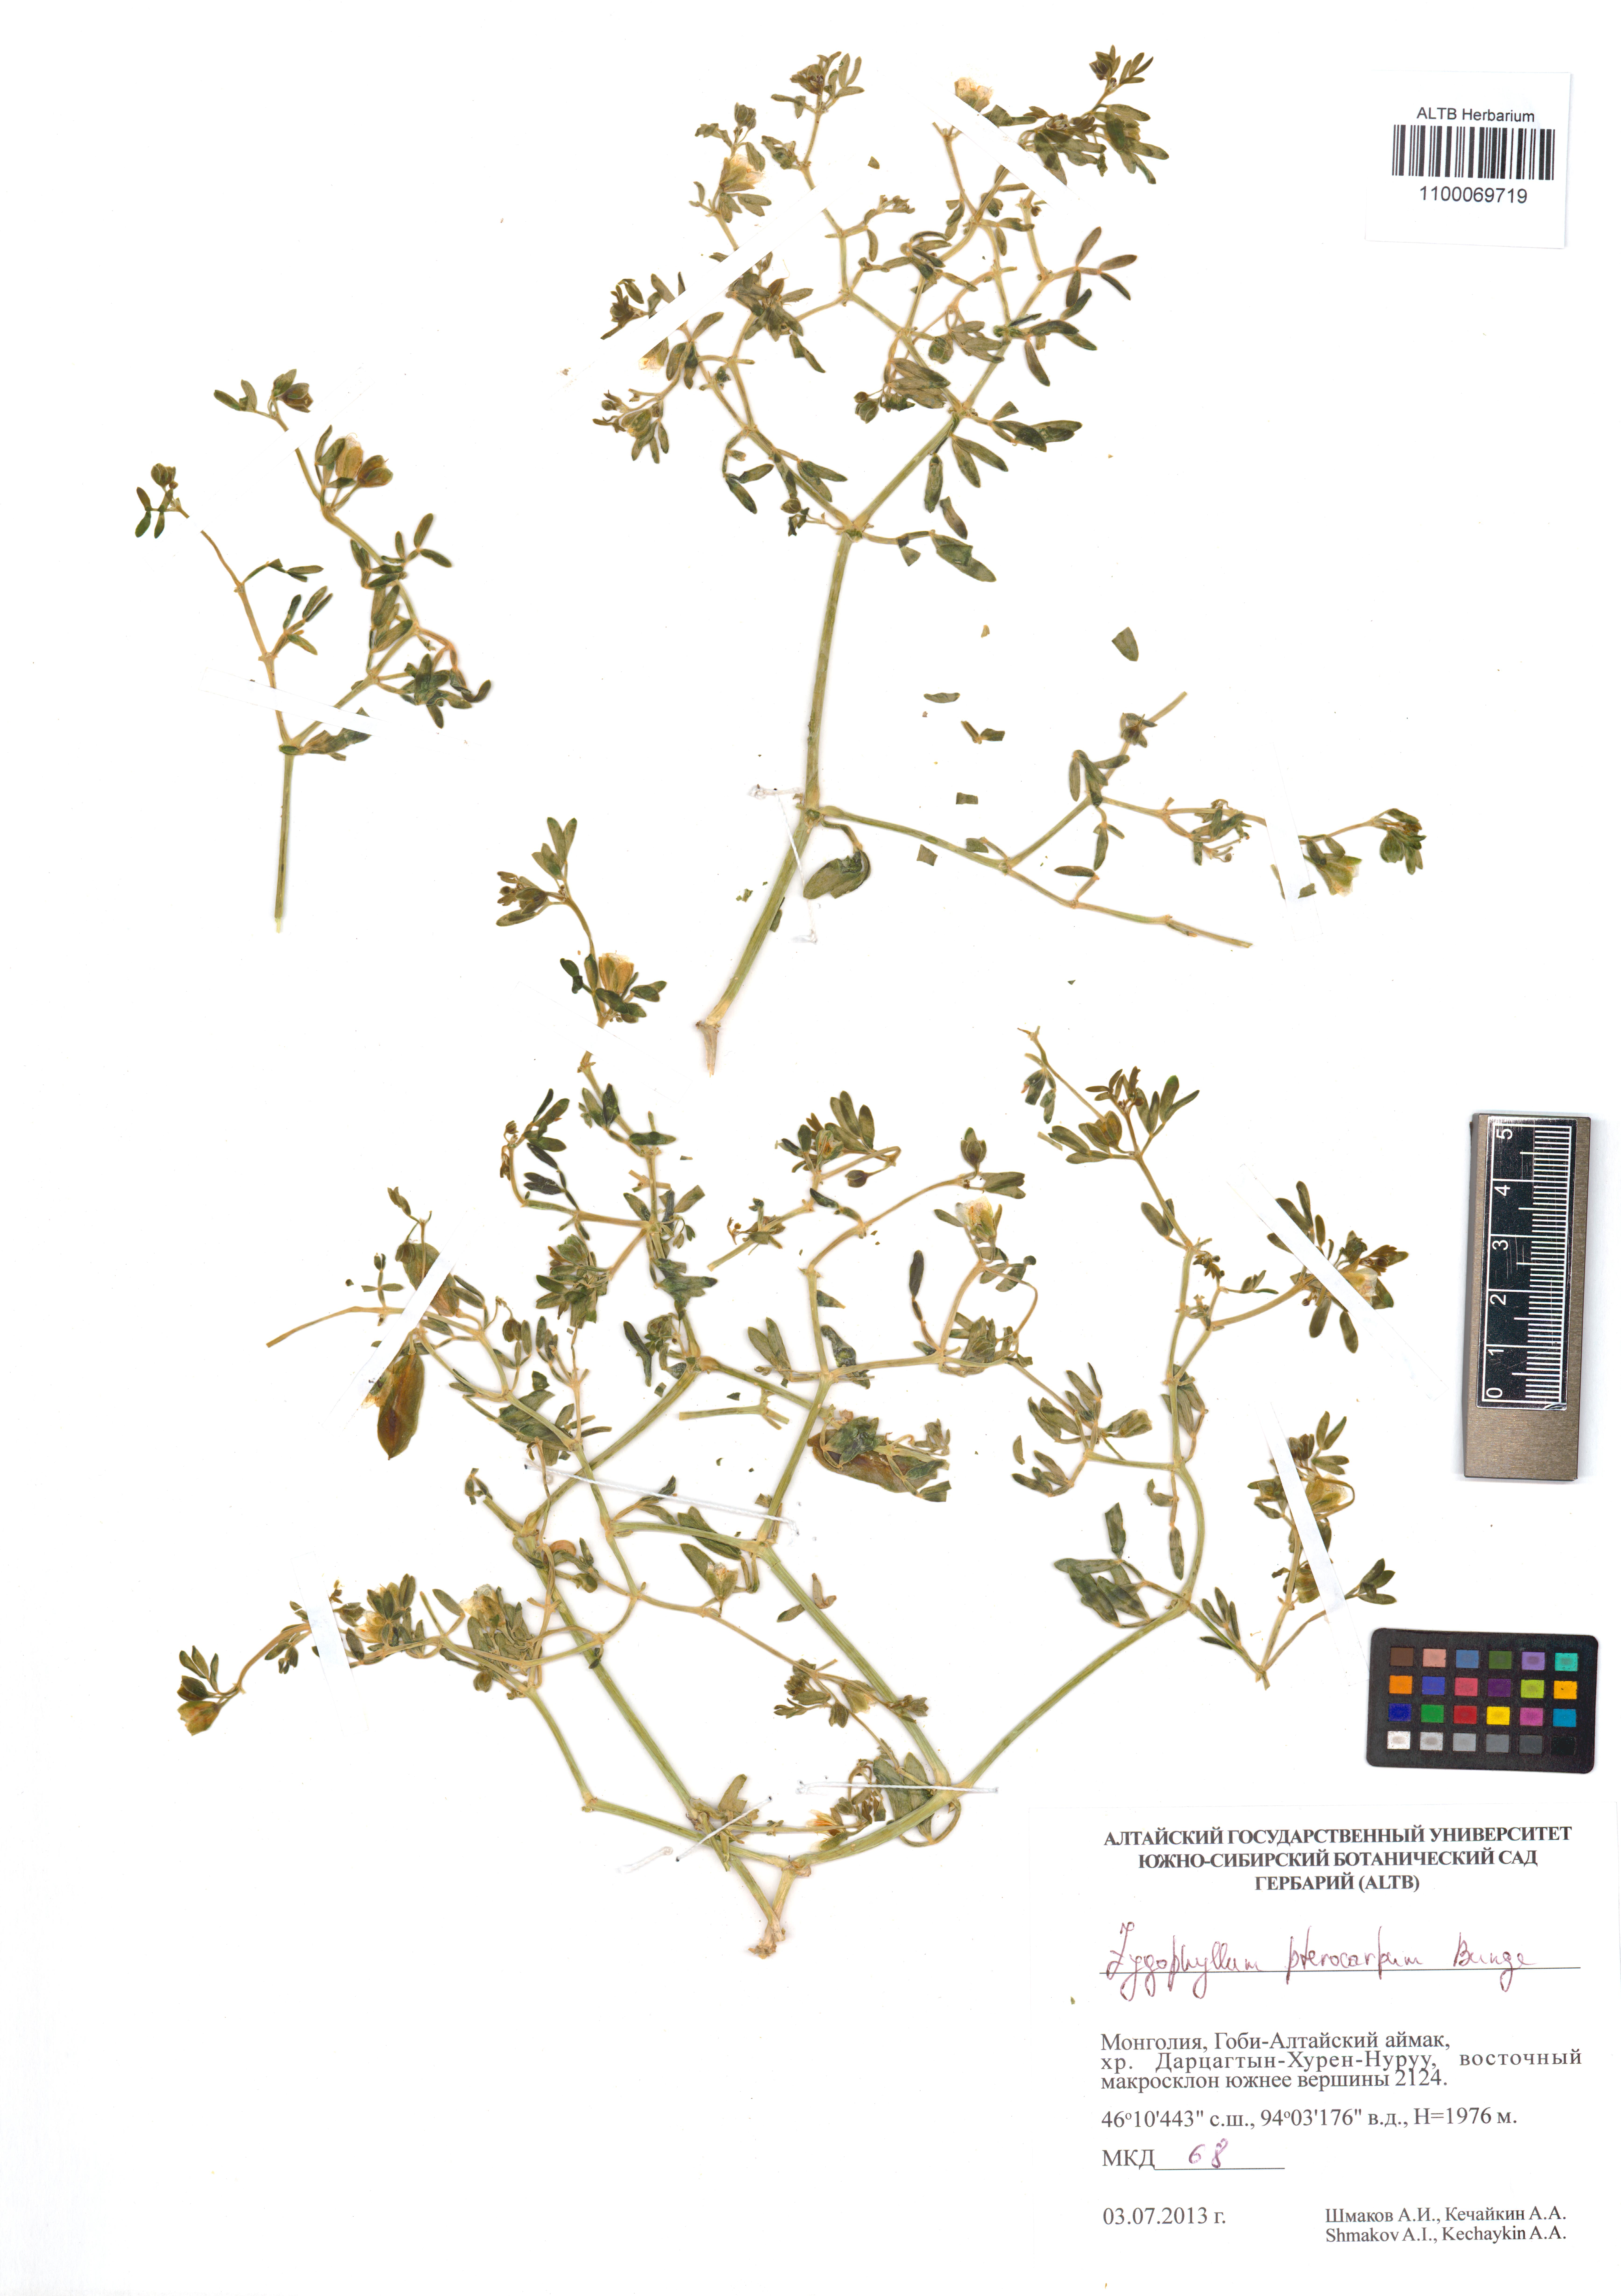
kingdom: Plantae
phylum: Tracheophyta
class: Magnoliopsida
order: Zygophyllales
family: Zygophyllaceae
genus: Zygophyllum
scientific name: Zygophyllum pterocarpum
